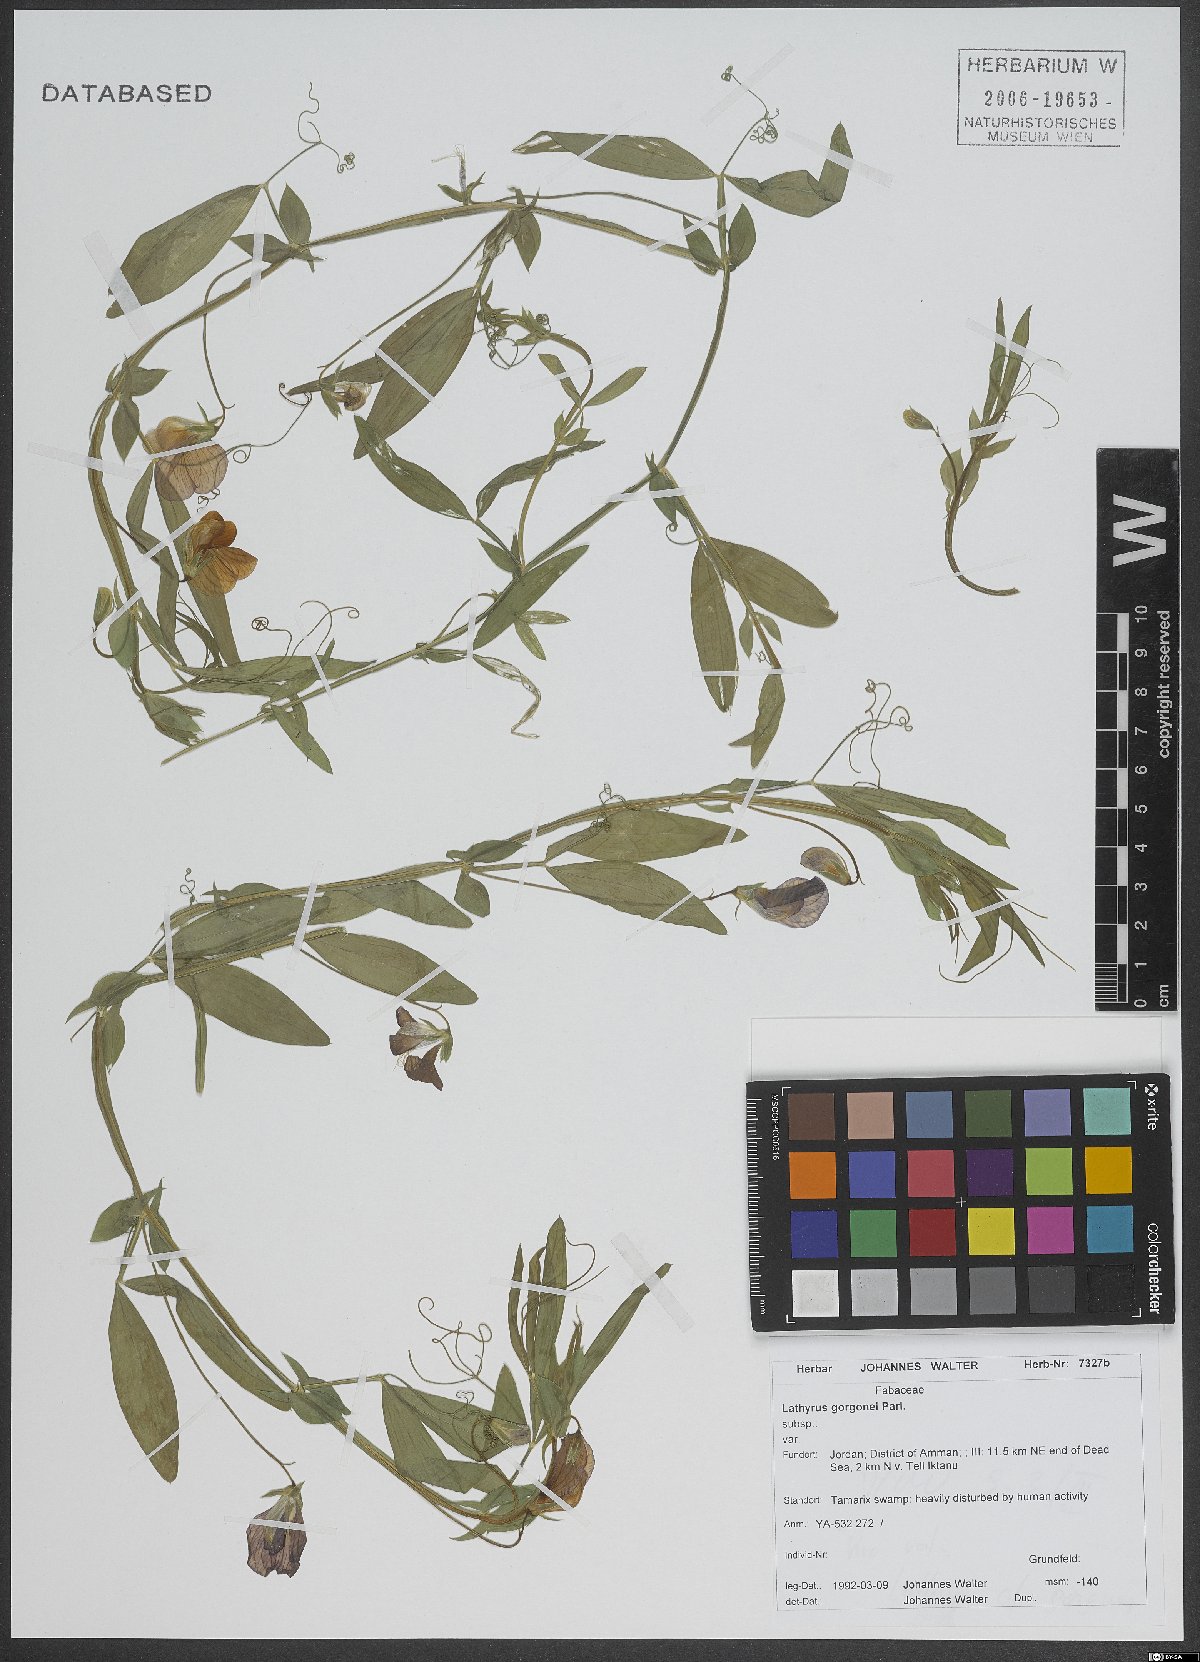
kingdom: Plantae
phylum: Tracheophyta
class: Magnoliopsida
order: Fabales
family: Fabaceae
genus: Lathyrus
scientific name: Lathyrus gorgoni
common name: Rare pea
